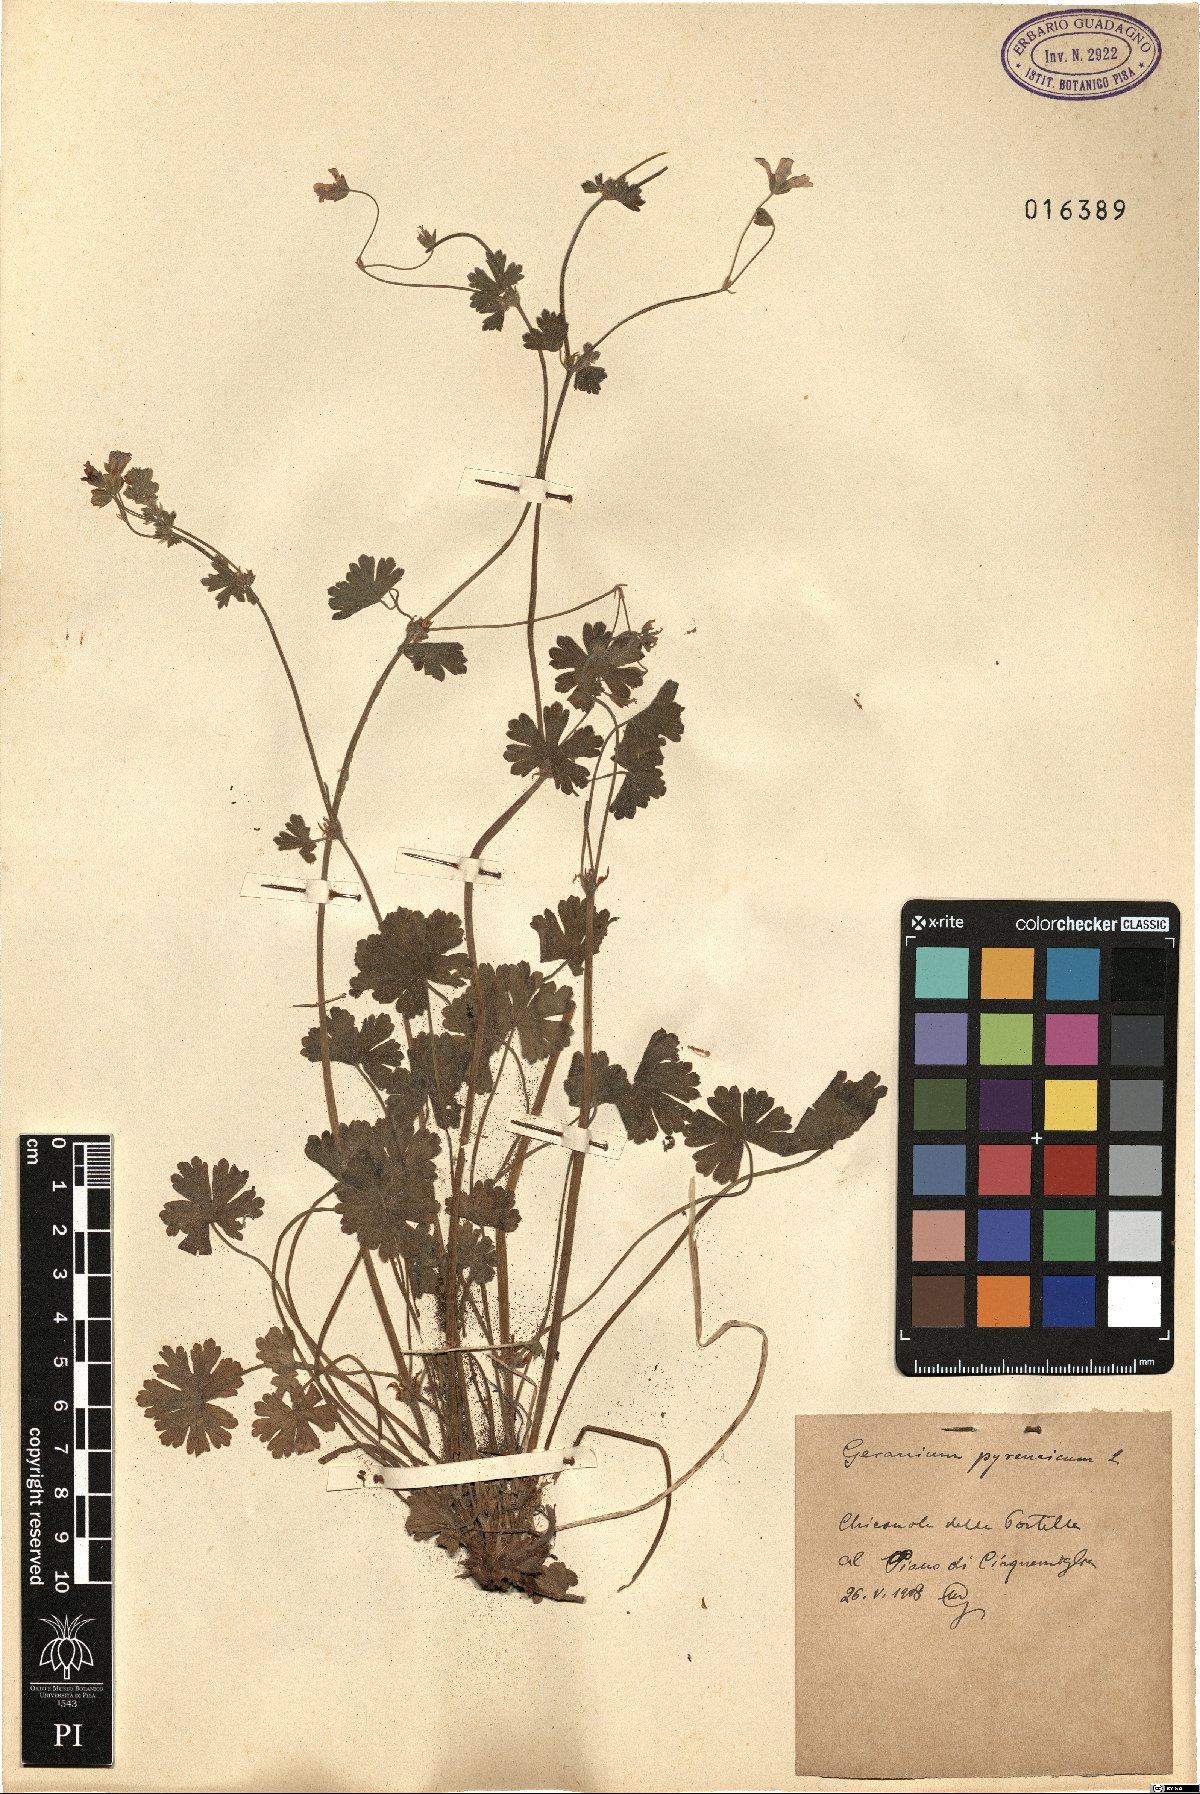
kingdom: Plantae
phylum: Tracheophyta
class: Magnoliopsida
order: Geraniales
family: Geraniaceae
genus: Geranium
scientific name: Geranium pyrenaicum
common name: Hedgerow crane's-bill
